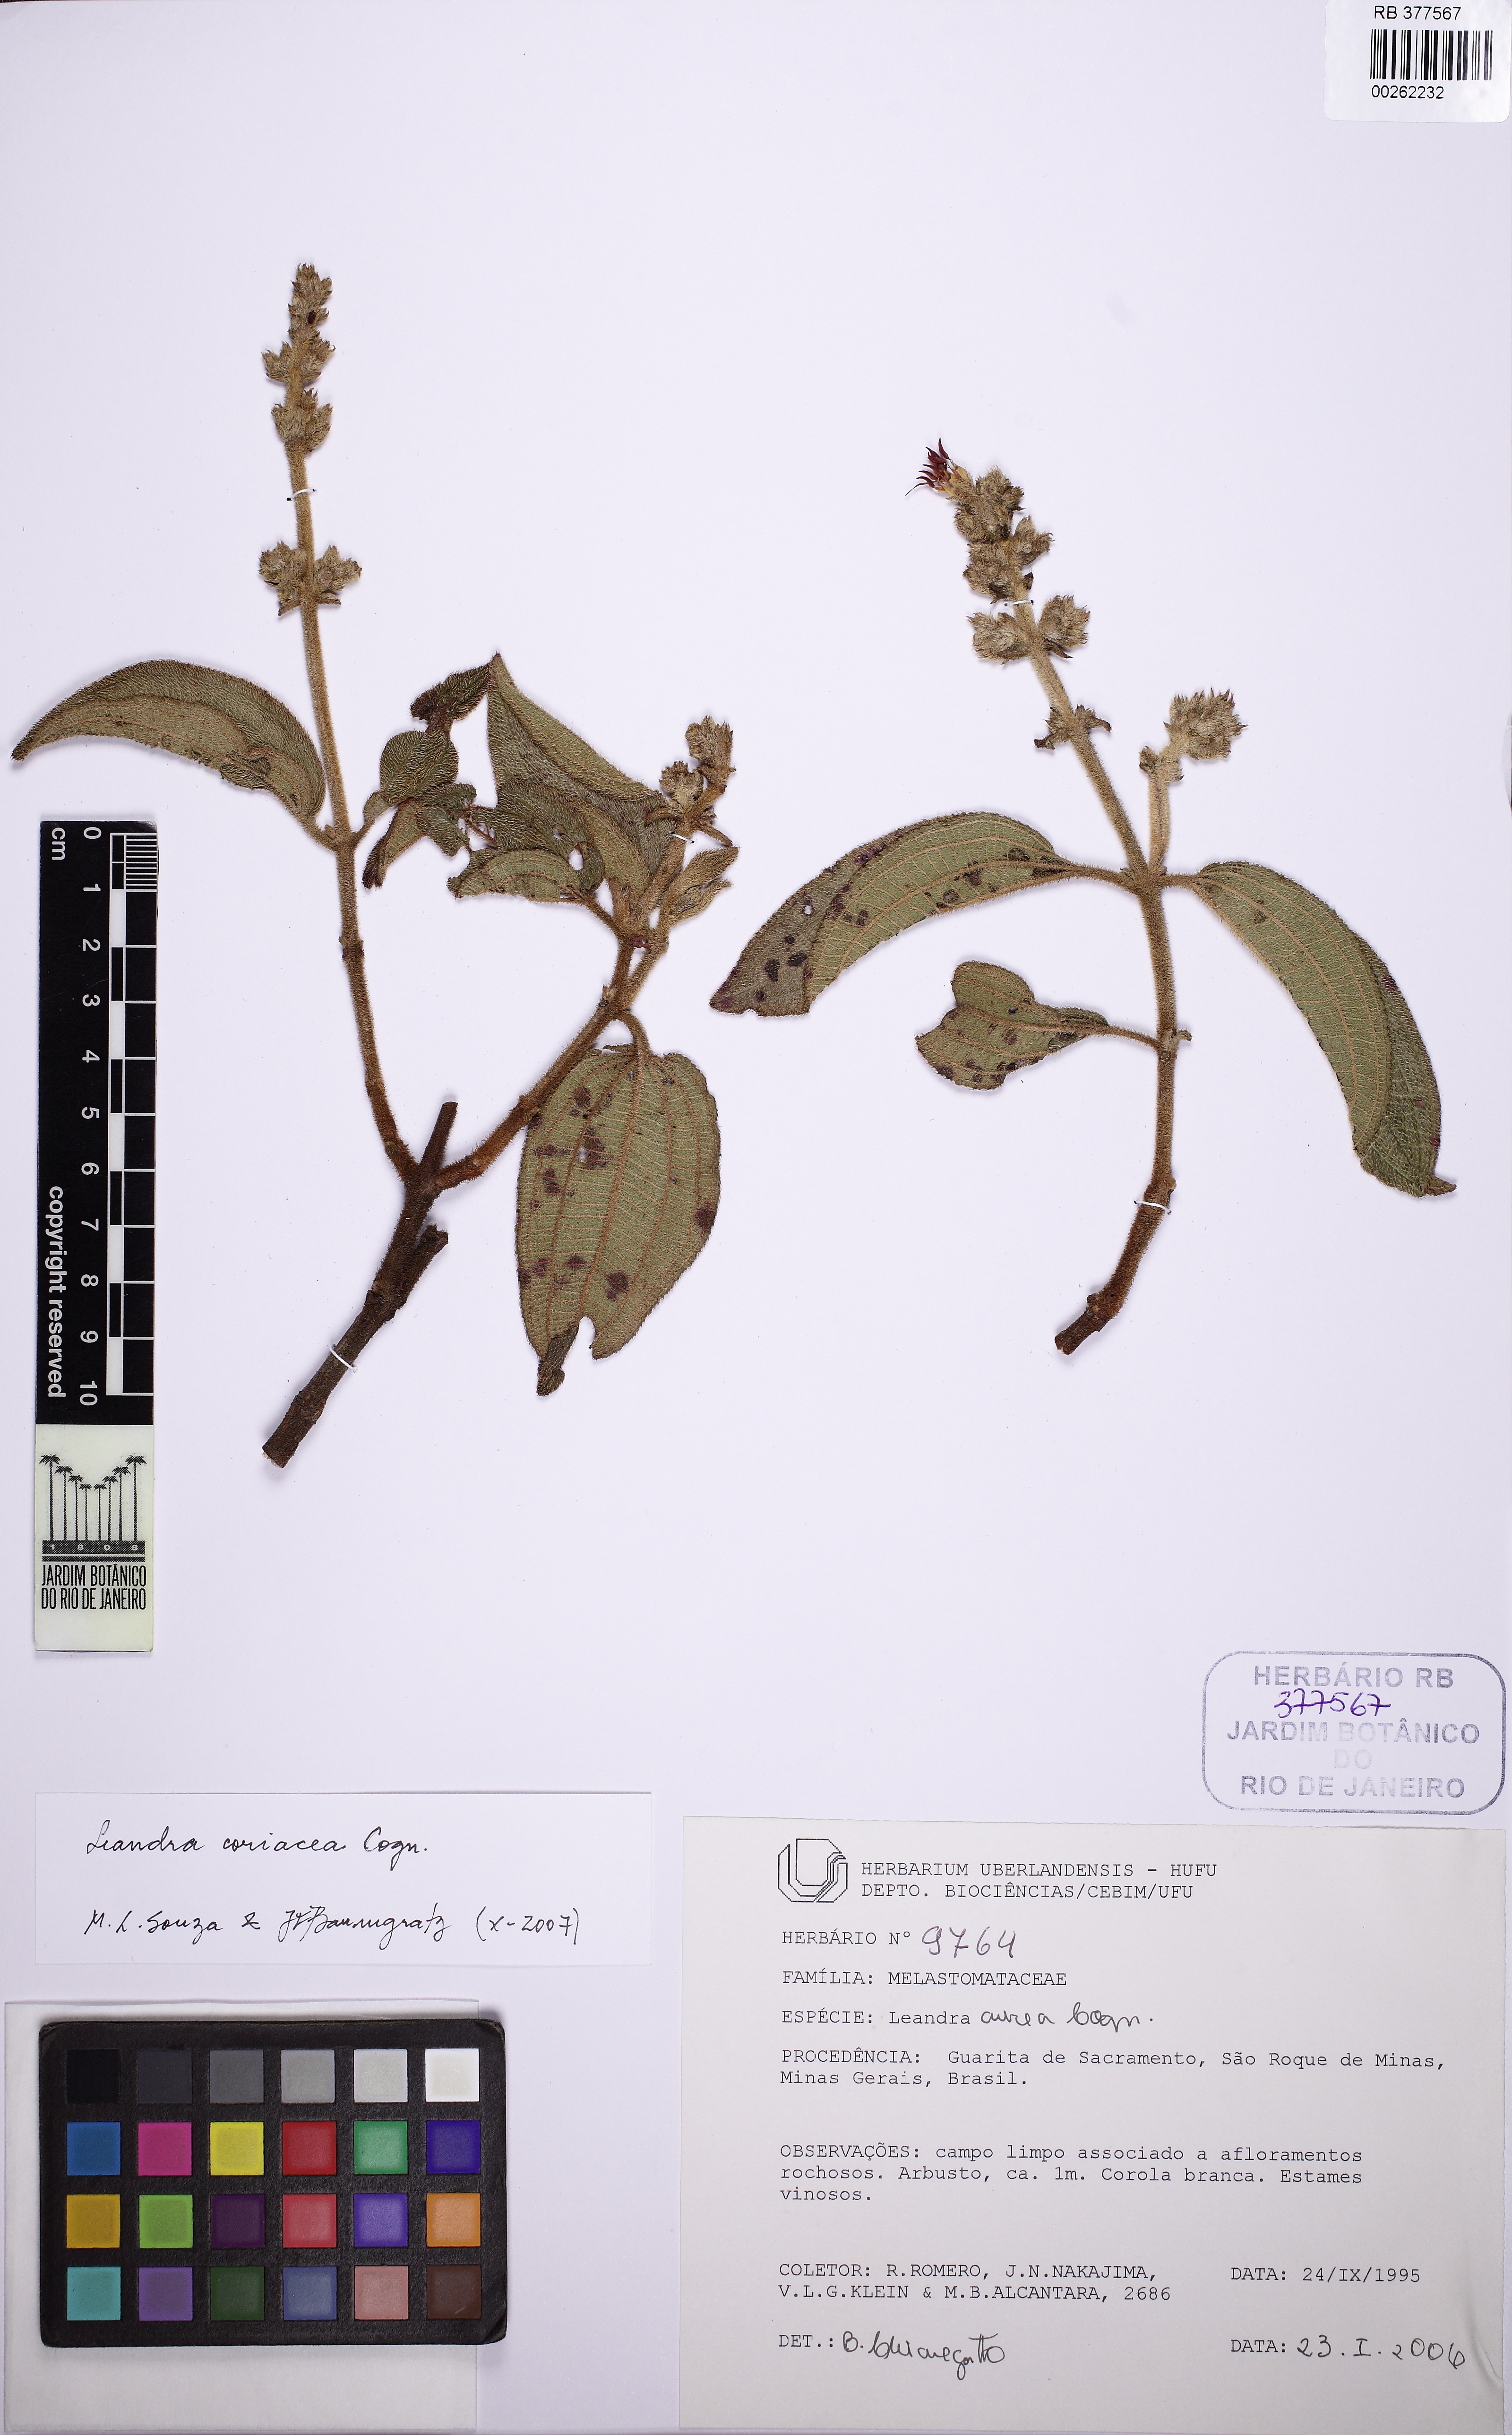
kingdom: Plantae
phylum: Tracheophyta
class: Magnoliopsida
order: Myrtales
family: Melastomataceae
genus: Miconia
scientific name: Miconia leacoriacea
